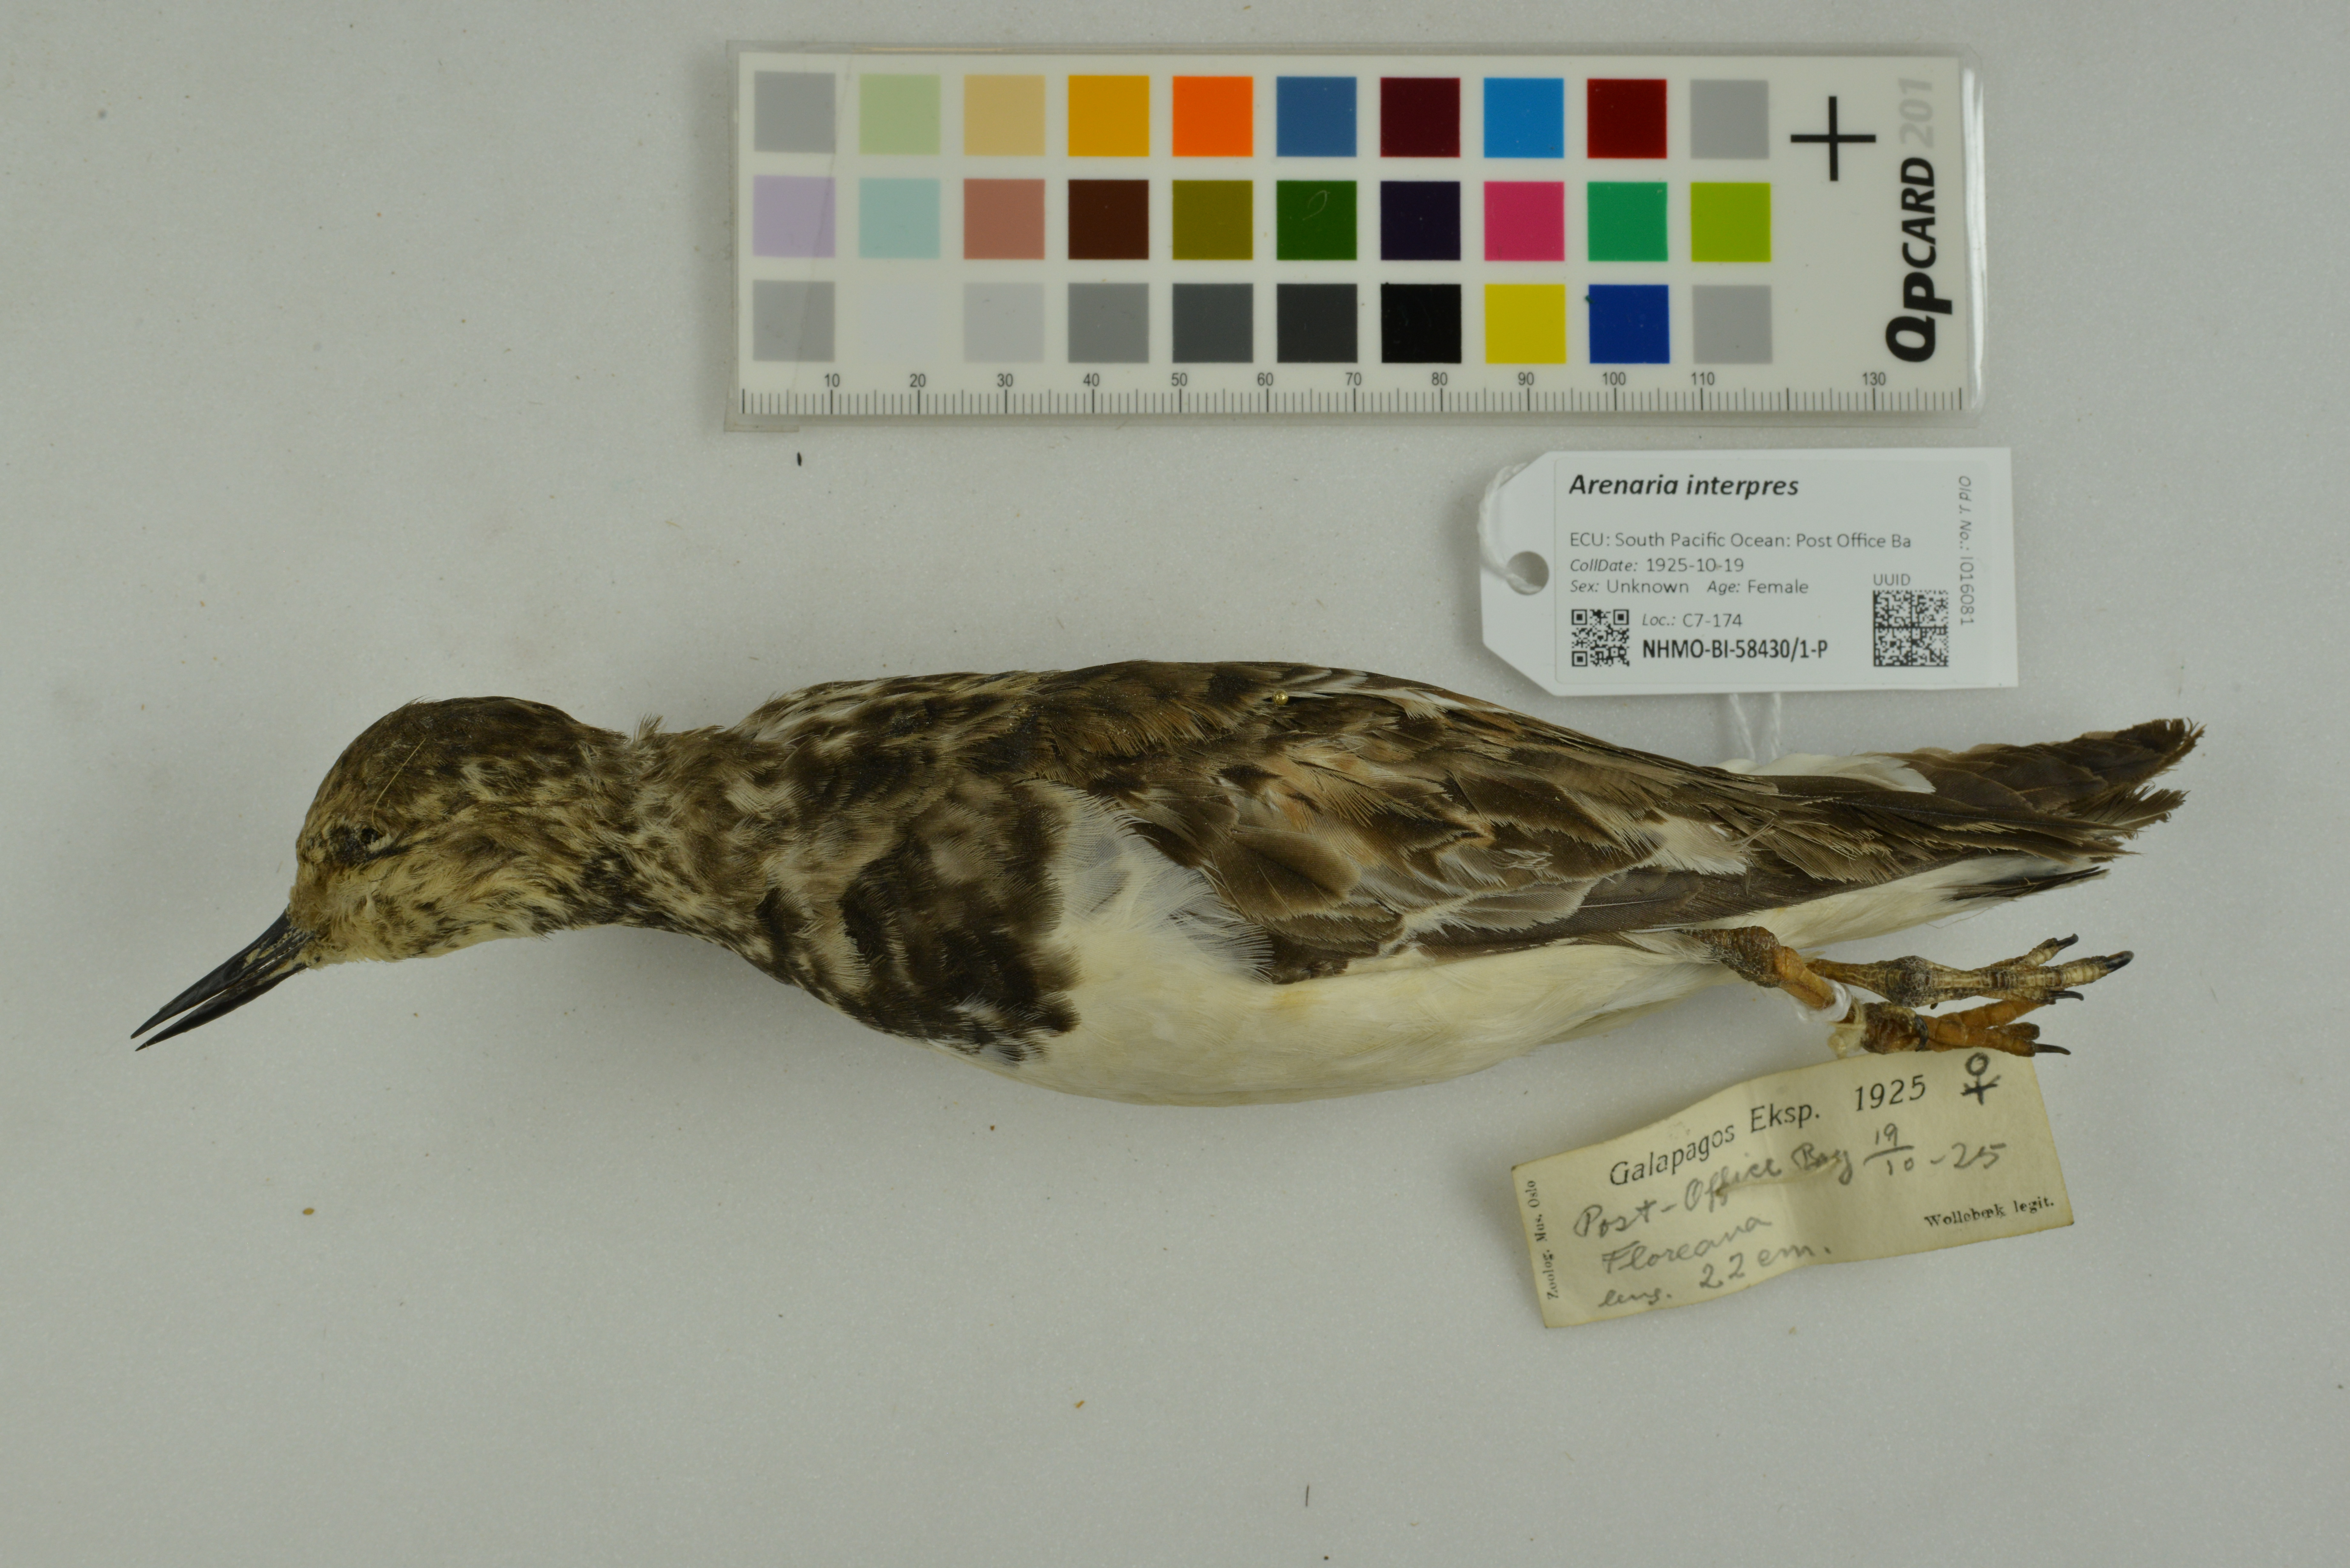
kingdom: Animalia
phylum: Chordata
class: Aves
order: Charadriiformes
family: Scolopacidae
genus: Arenaria
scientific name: Arenaria interpres
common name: Ruddy turnstone
